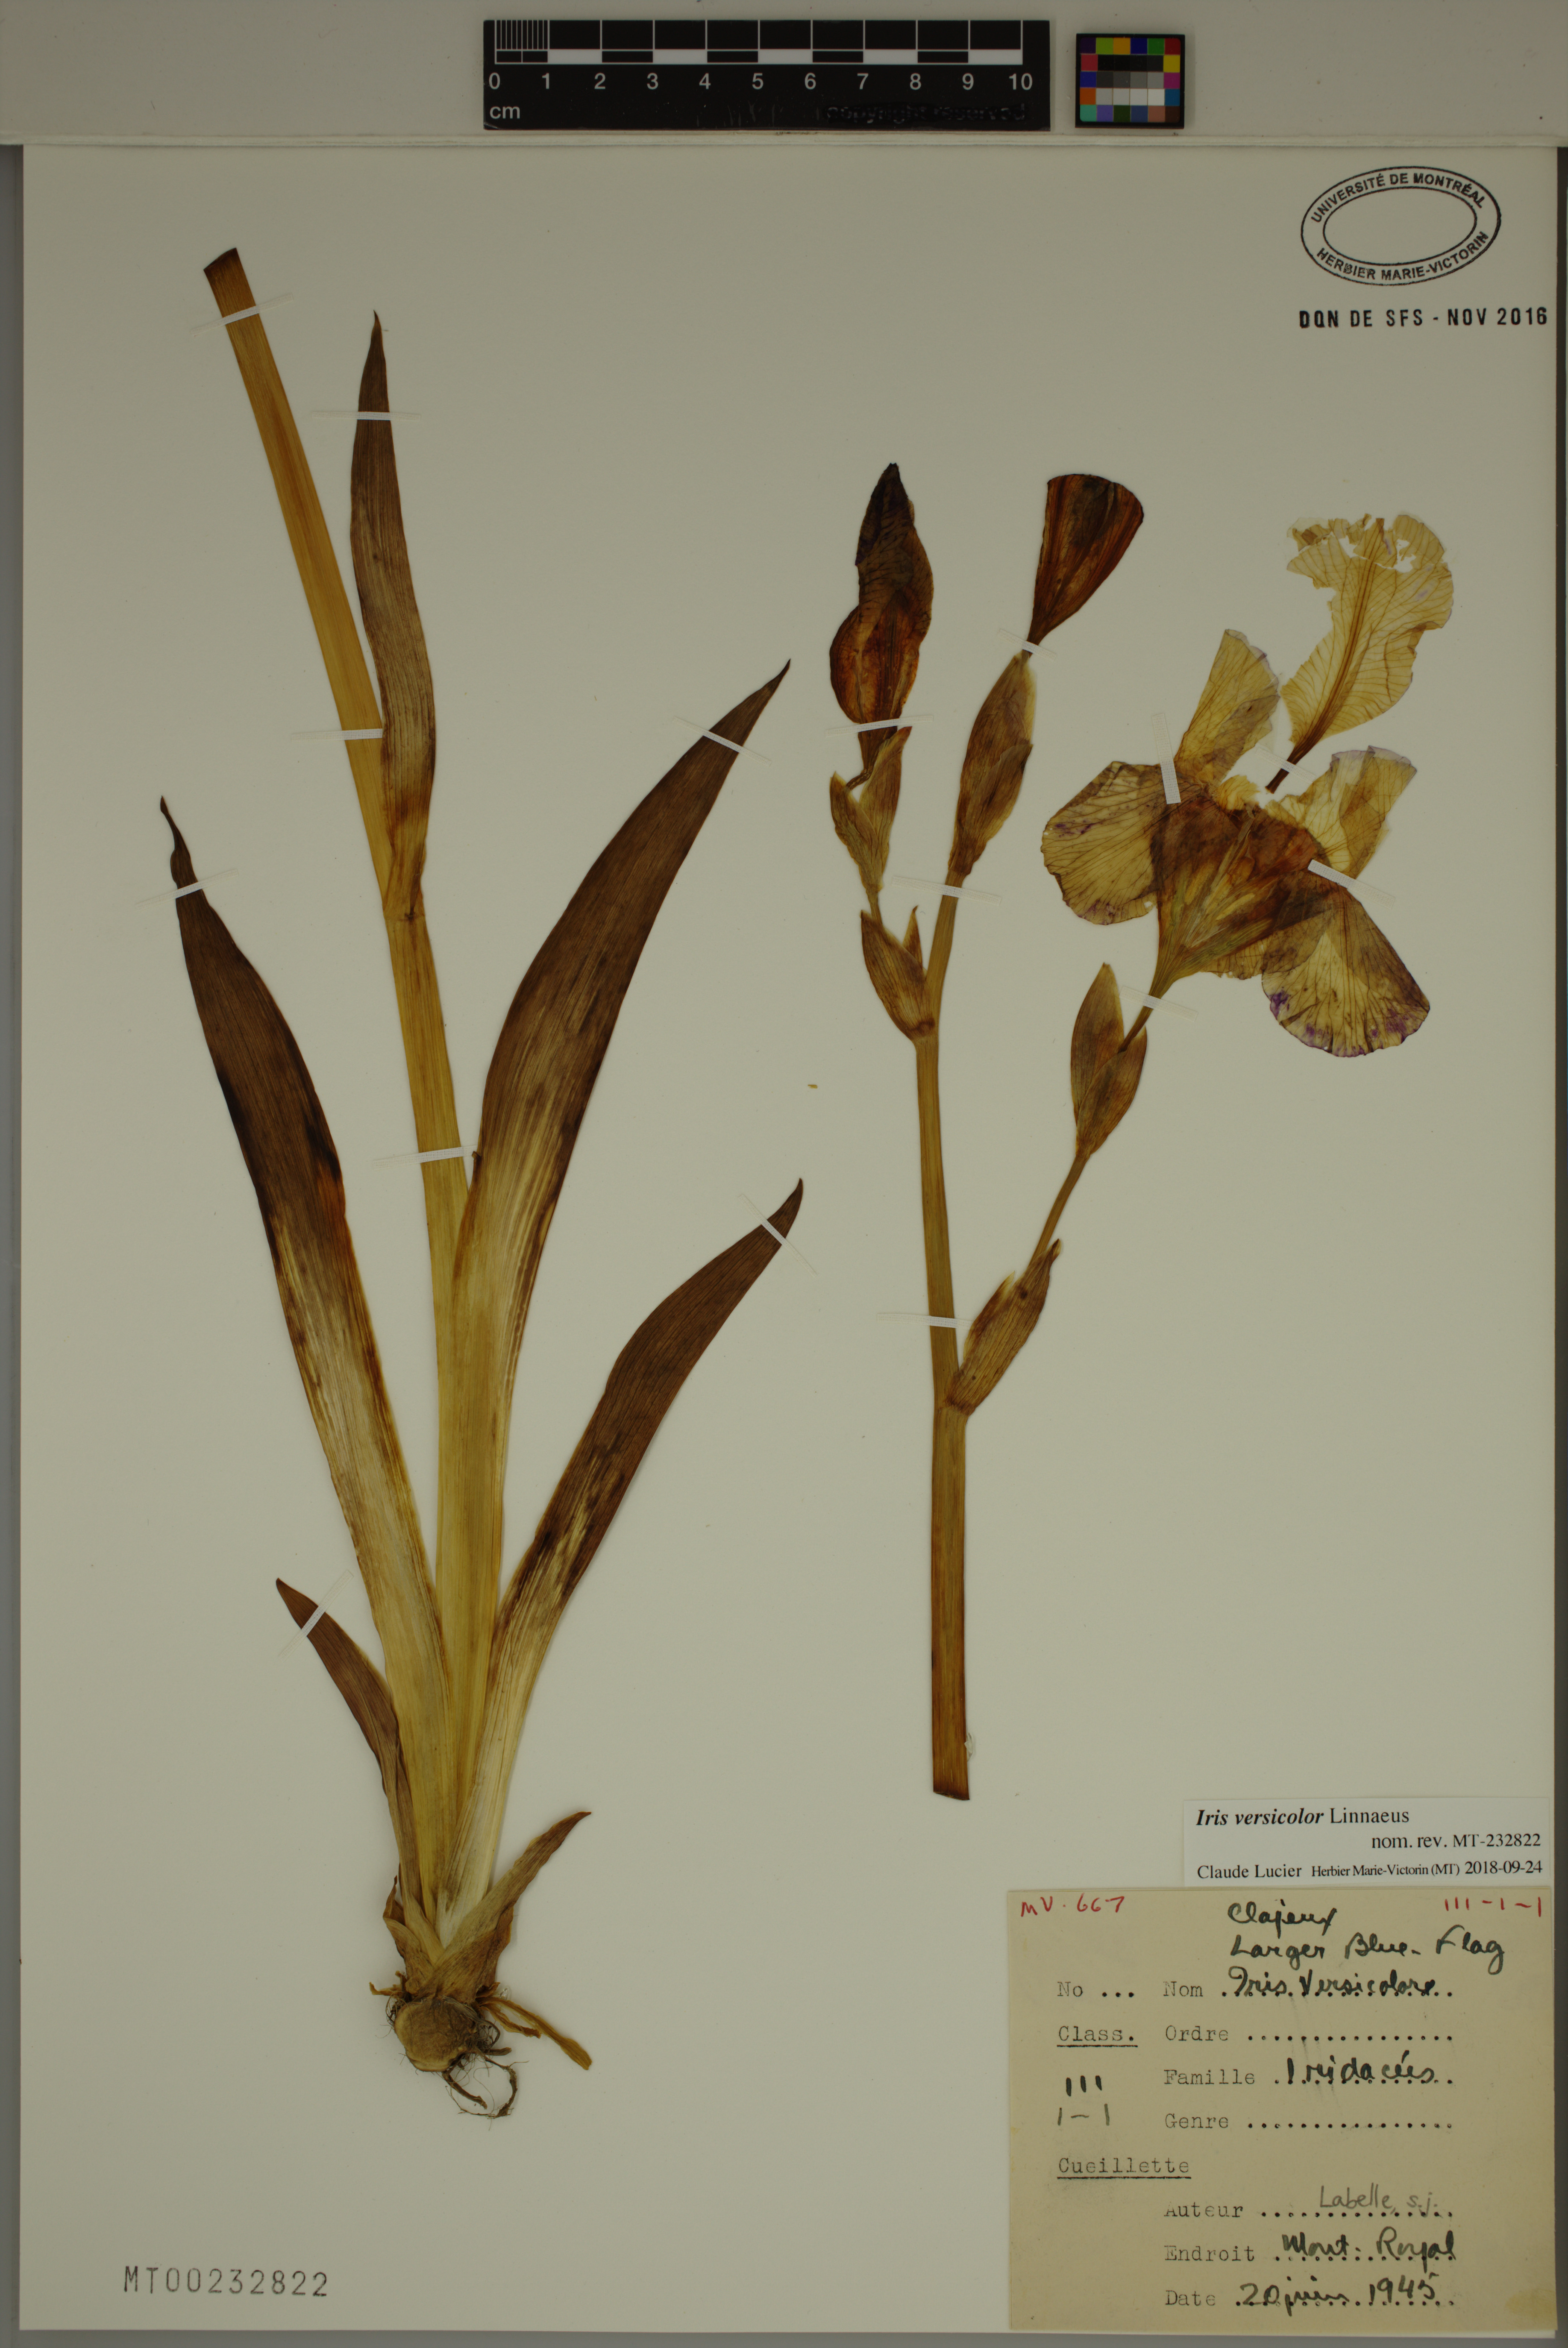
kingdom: Plantae
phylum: Tracheophyta
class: Liliopsida
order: Asparagales
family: Iridaceae
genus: Iris
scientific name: Iris versicolor
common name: Purple iris
